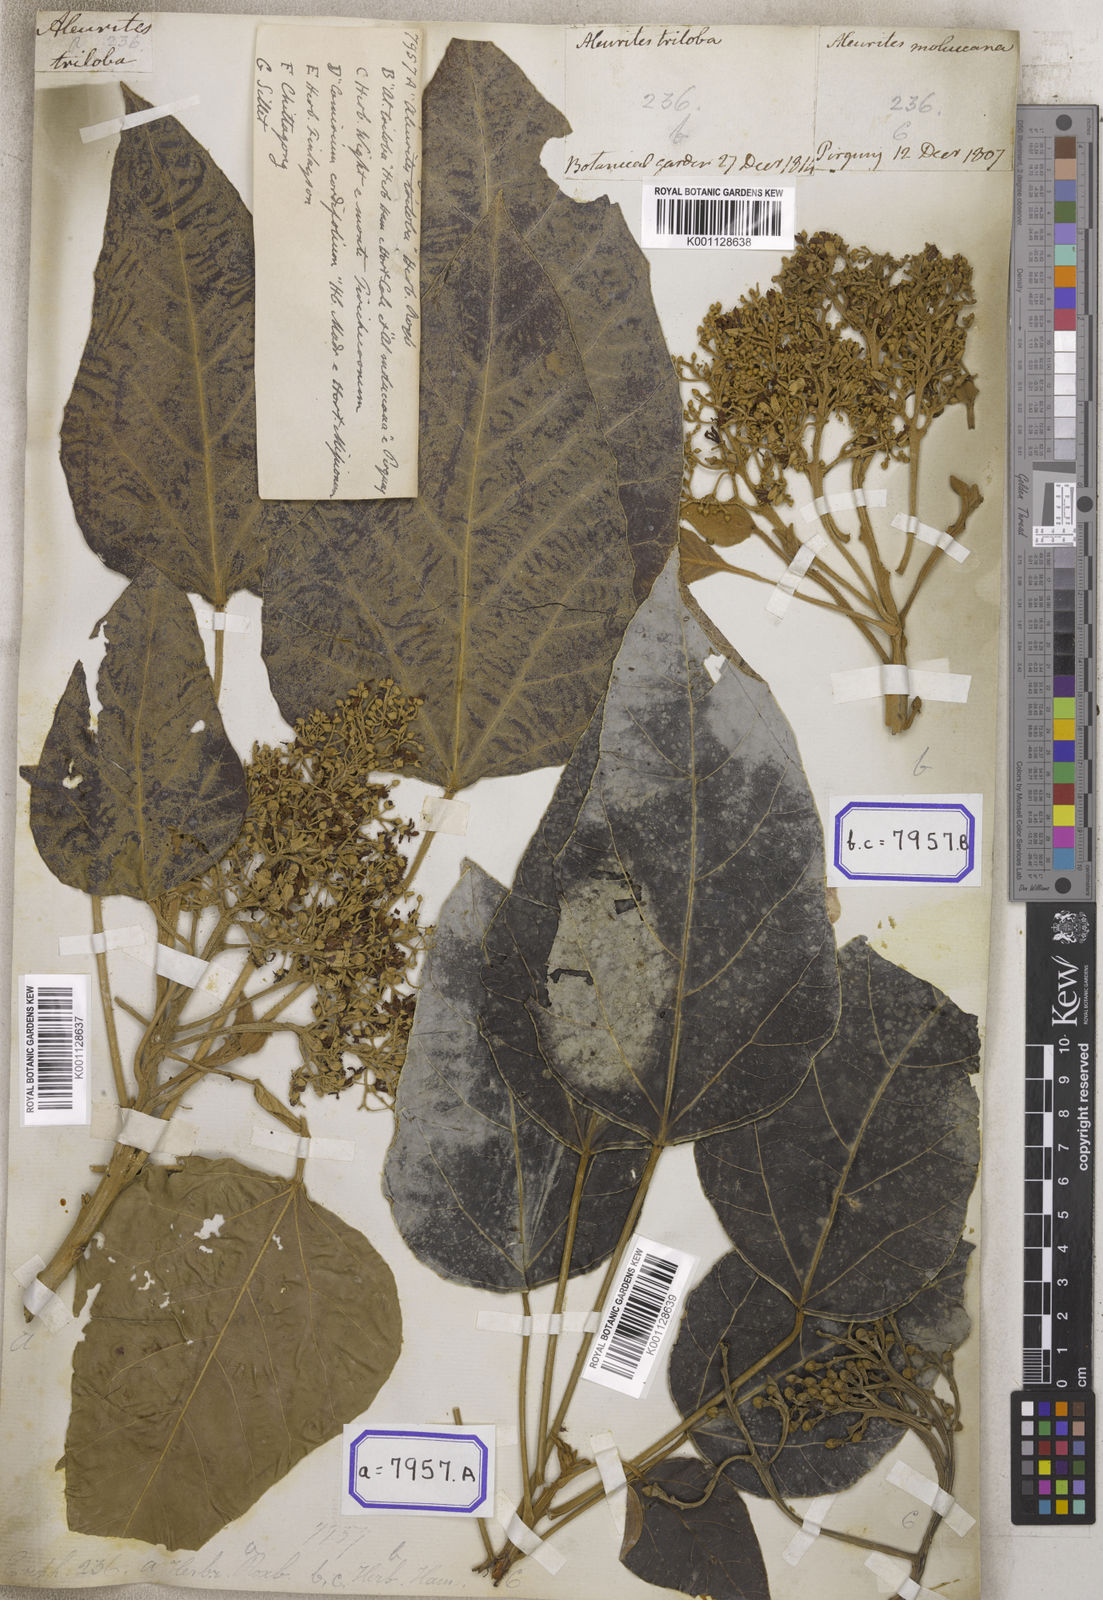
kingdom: Plantae
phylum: Tracheophyta
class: Magnoliopsida
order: Malpighiales
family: Euphorbiaceae
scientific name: Euphorbiaceae
